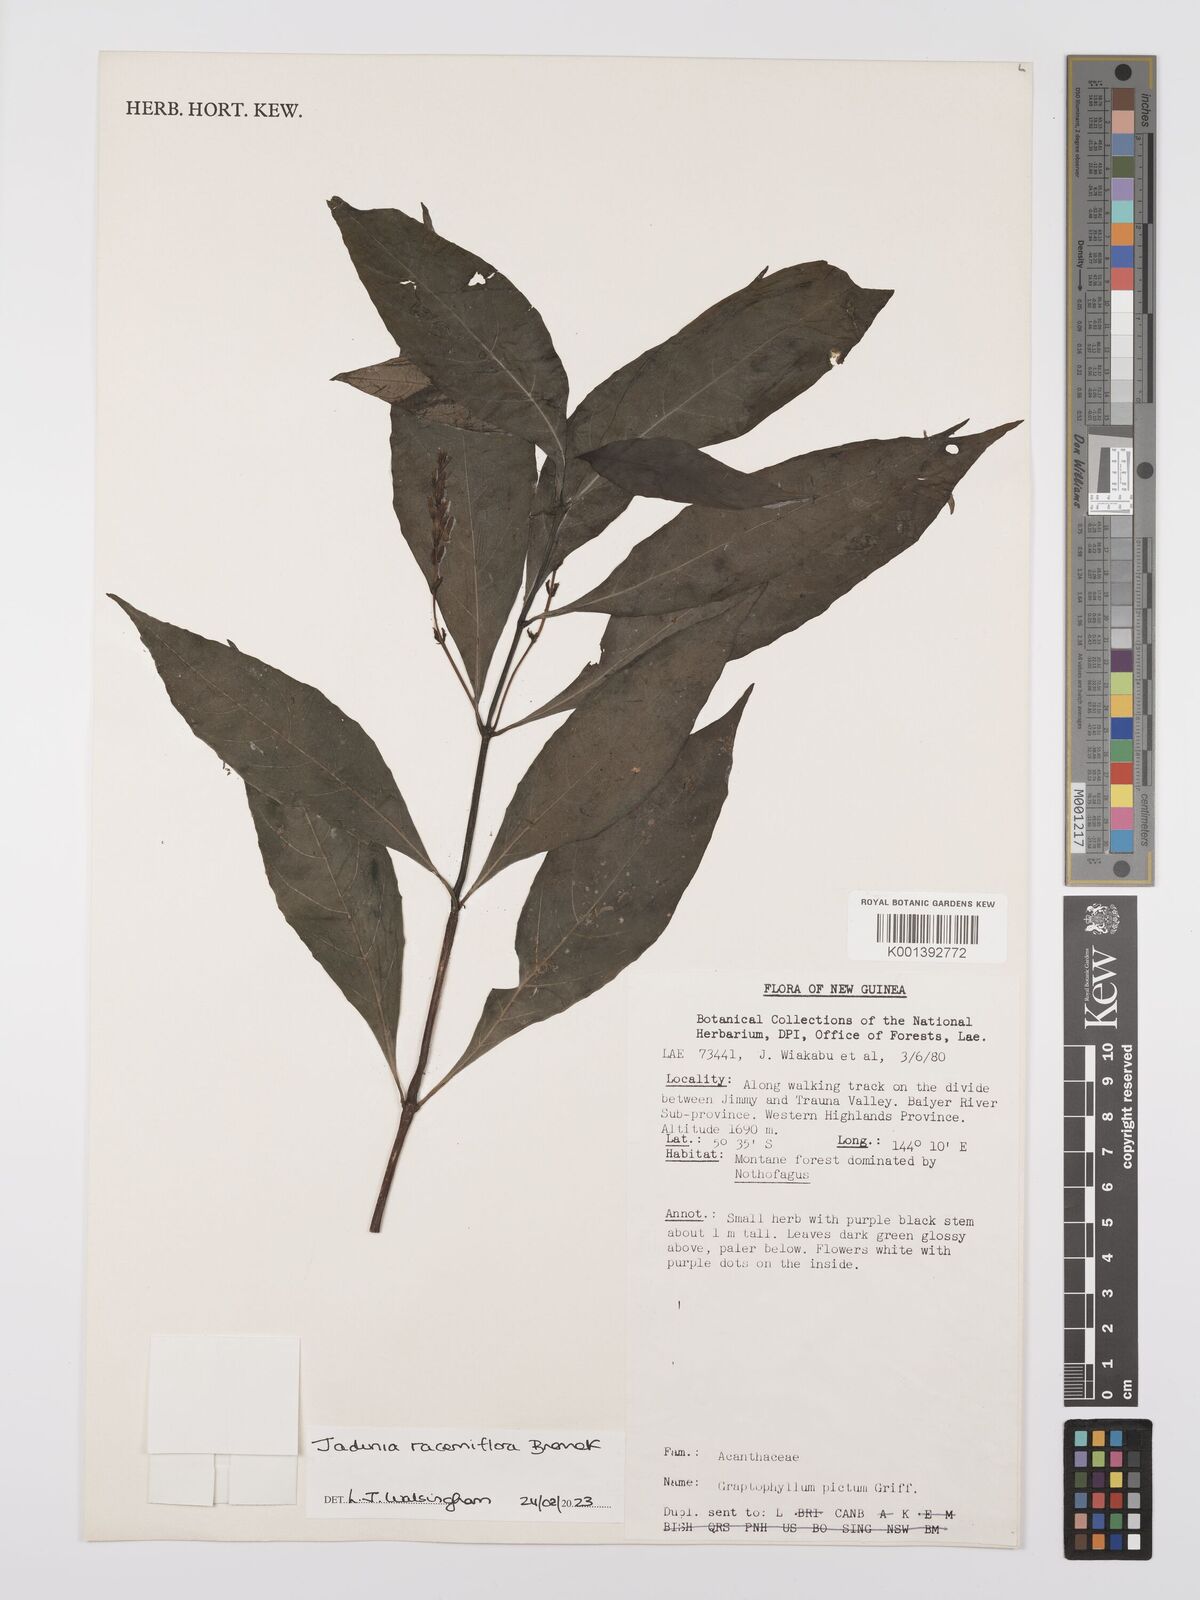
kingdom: Plantae
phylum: Tracheophyta
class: Magnoliopsida
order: Lamiales
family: Acanthaceae
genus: Jadunia
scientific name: Jadunia racemiflora
